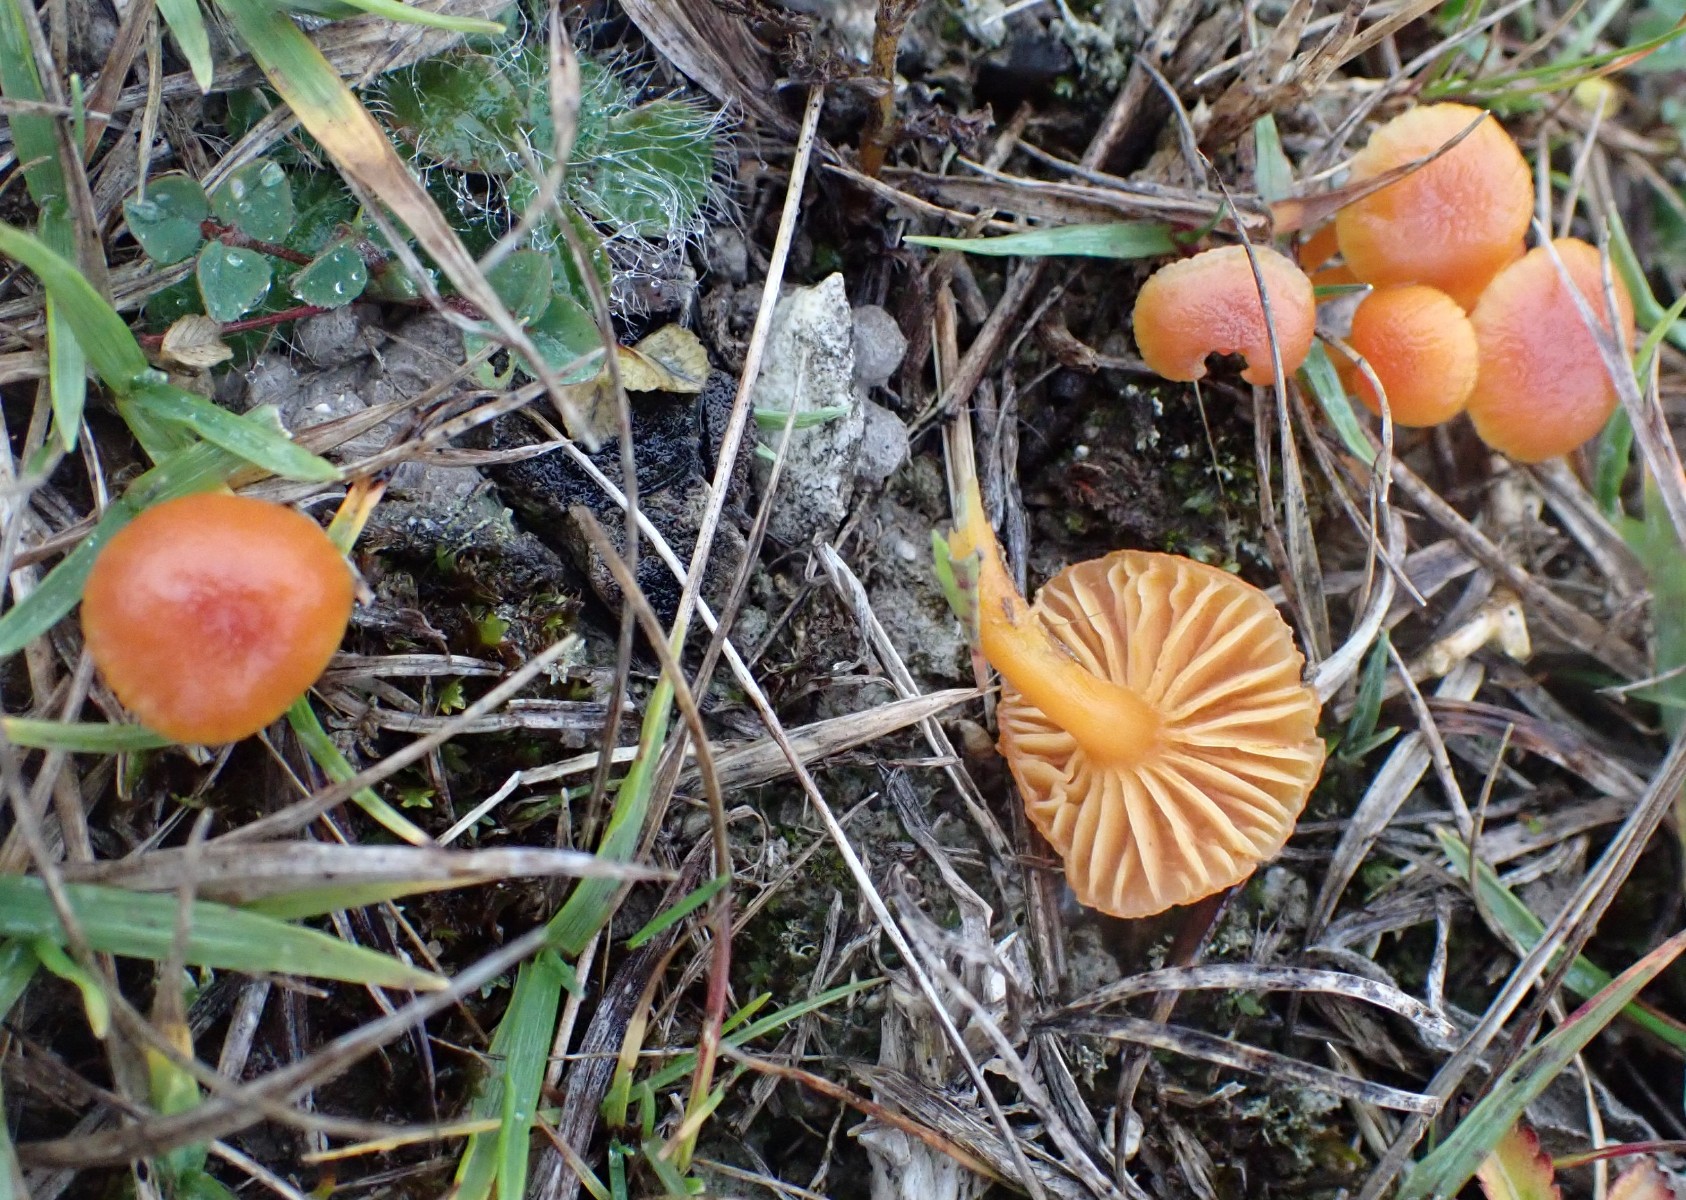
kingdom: Fungi
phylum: Basidiomycota
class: Agaricomycetes
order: Agaricales
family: Hygrophoraceae
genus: Hygrocybe
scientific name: Hygrocybe calciphila
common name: kalk-vokshat
